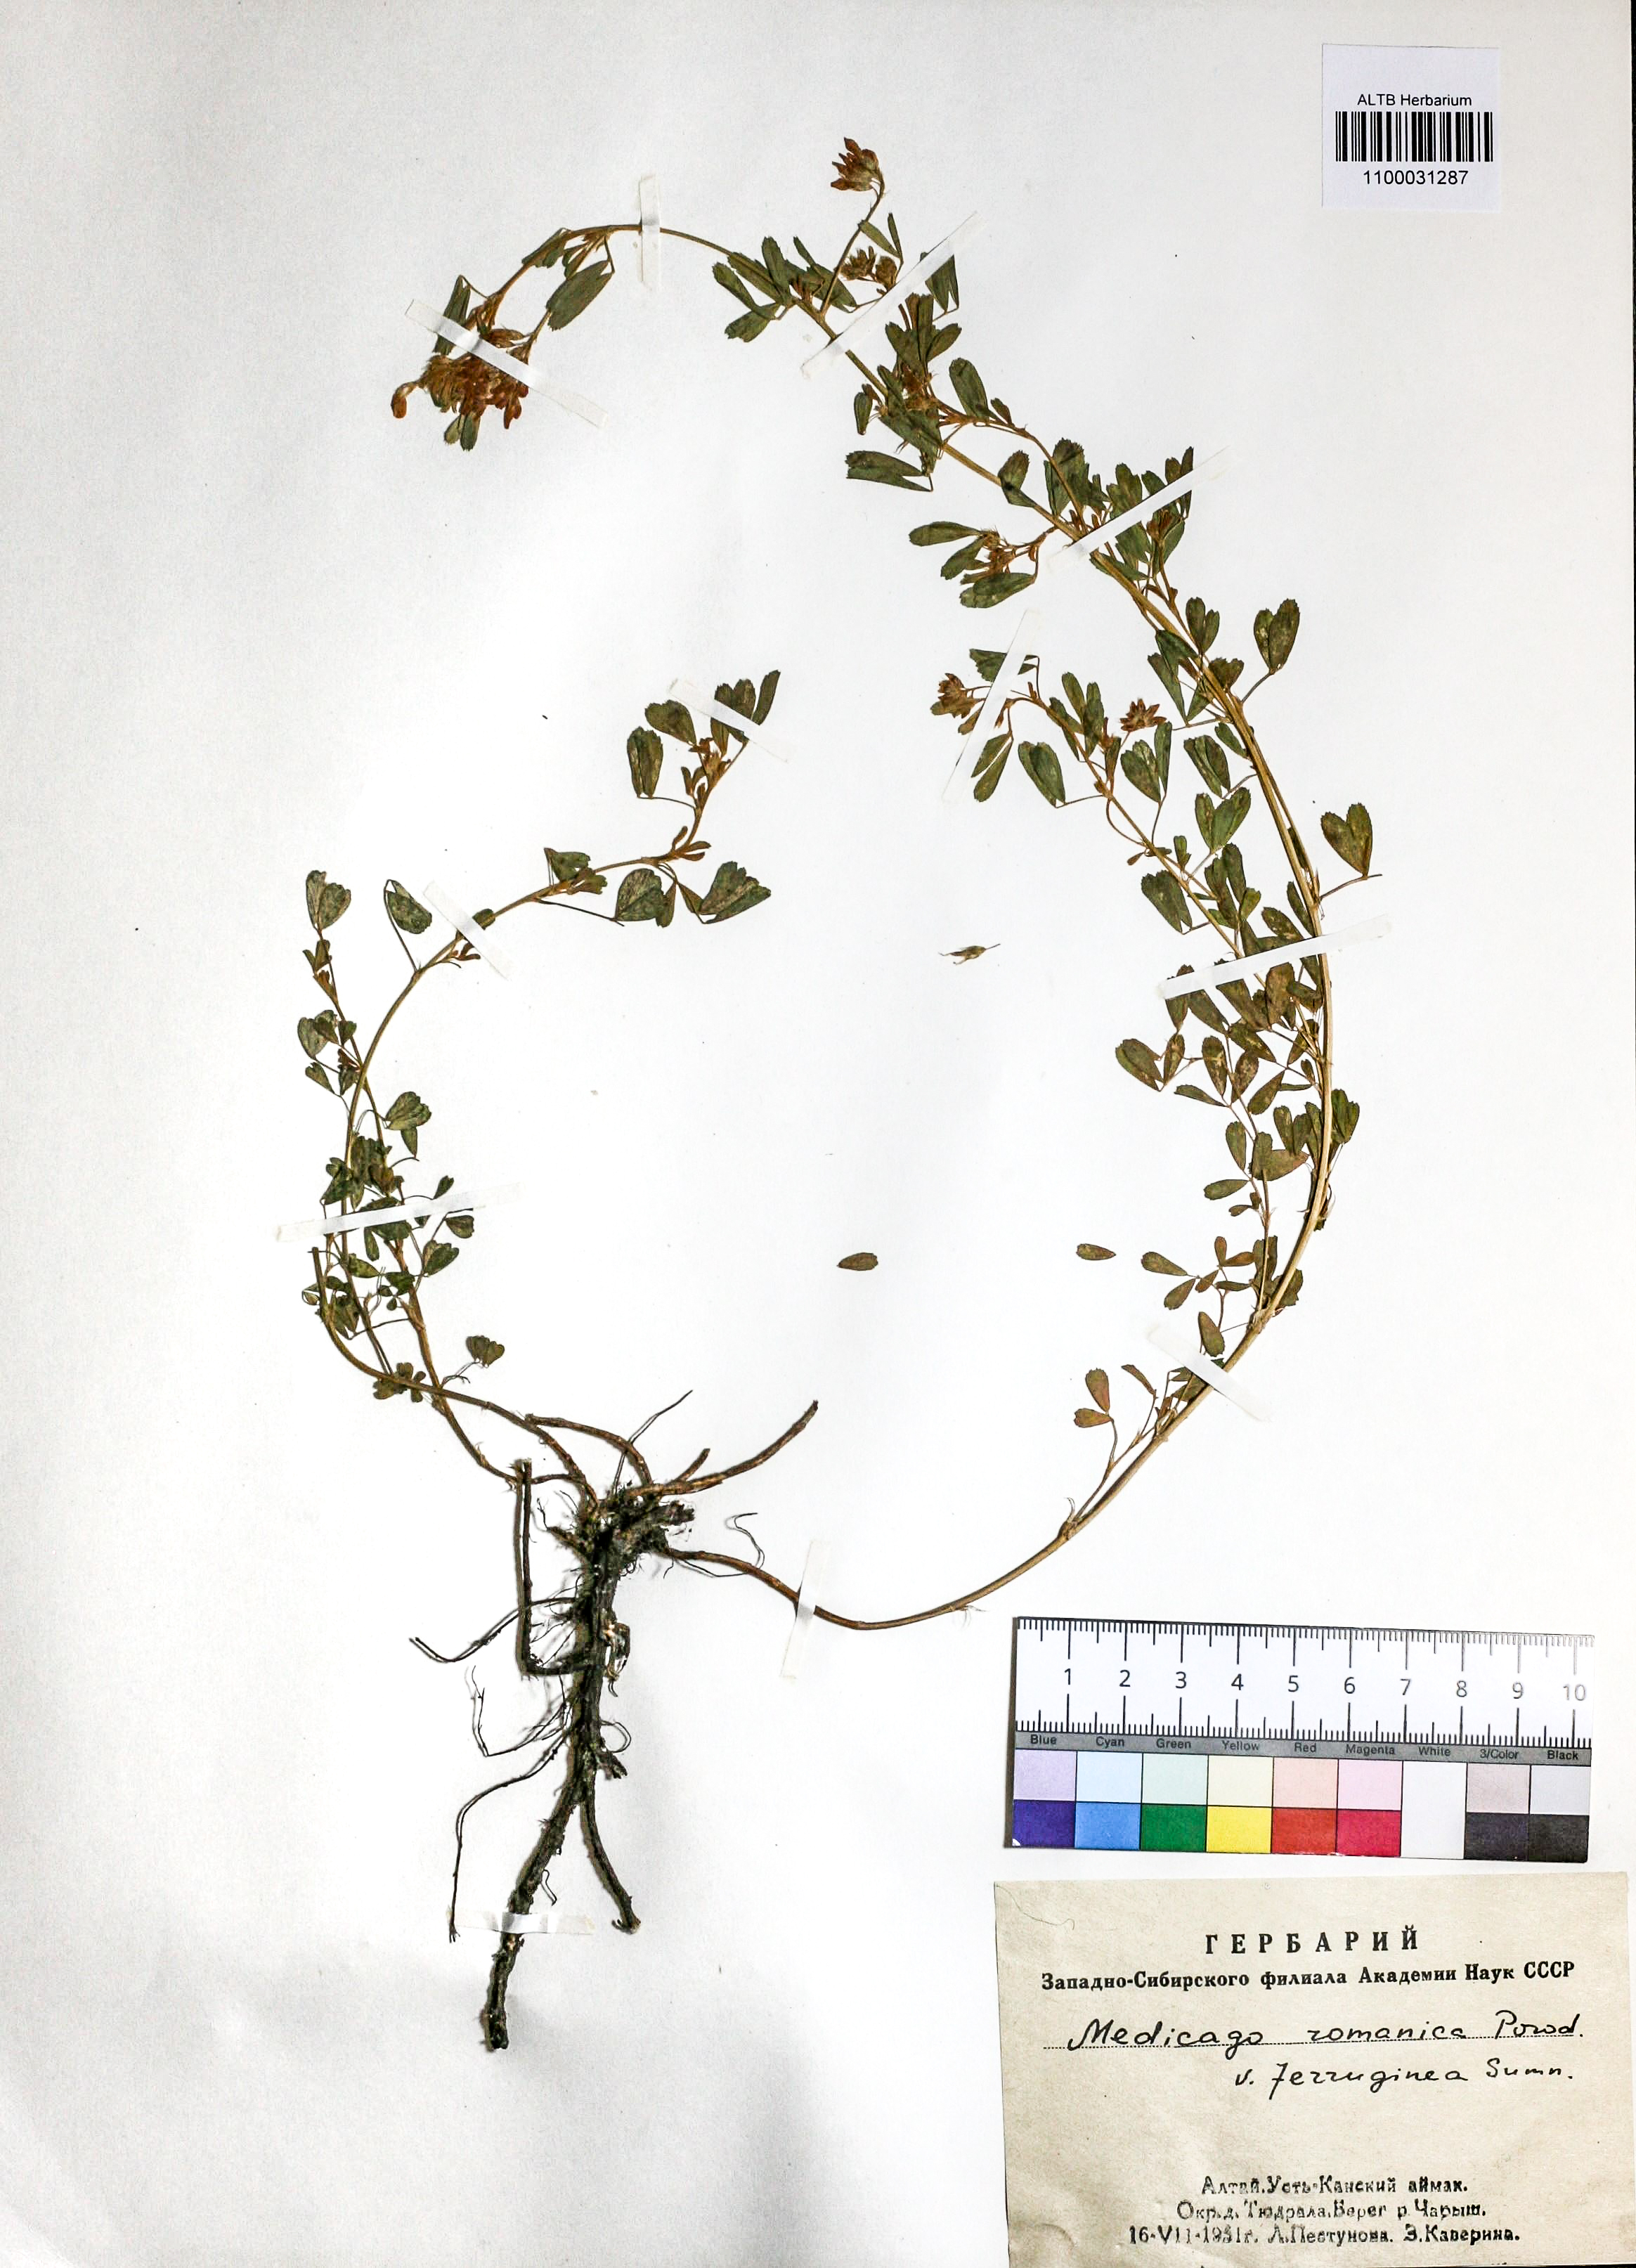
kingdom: Plantae
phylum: Tracheophyta
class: Magnoliopsida
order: Fabales
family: Fabaceae
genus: Medicago
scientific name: Medicago falcata
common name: Sickle medick
